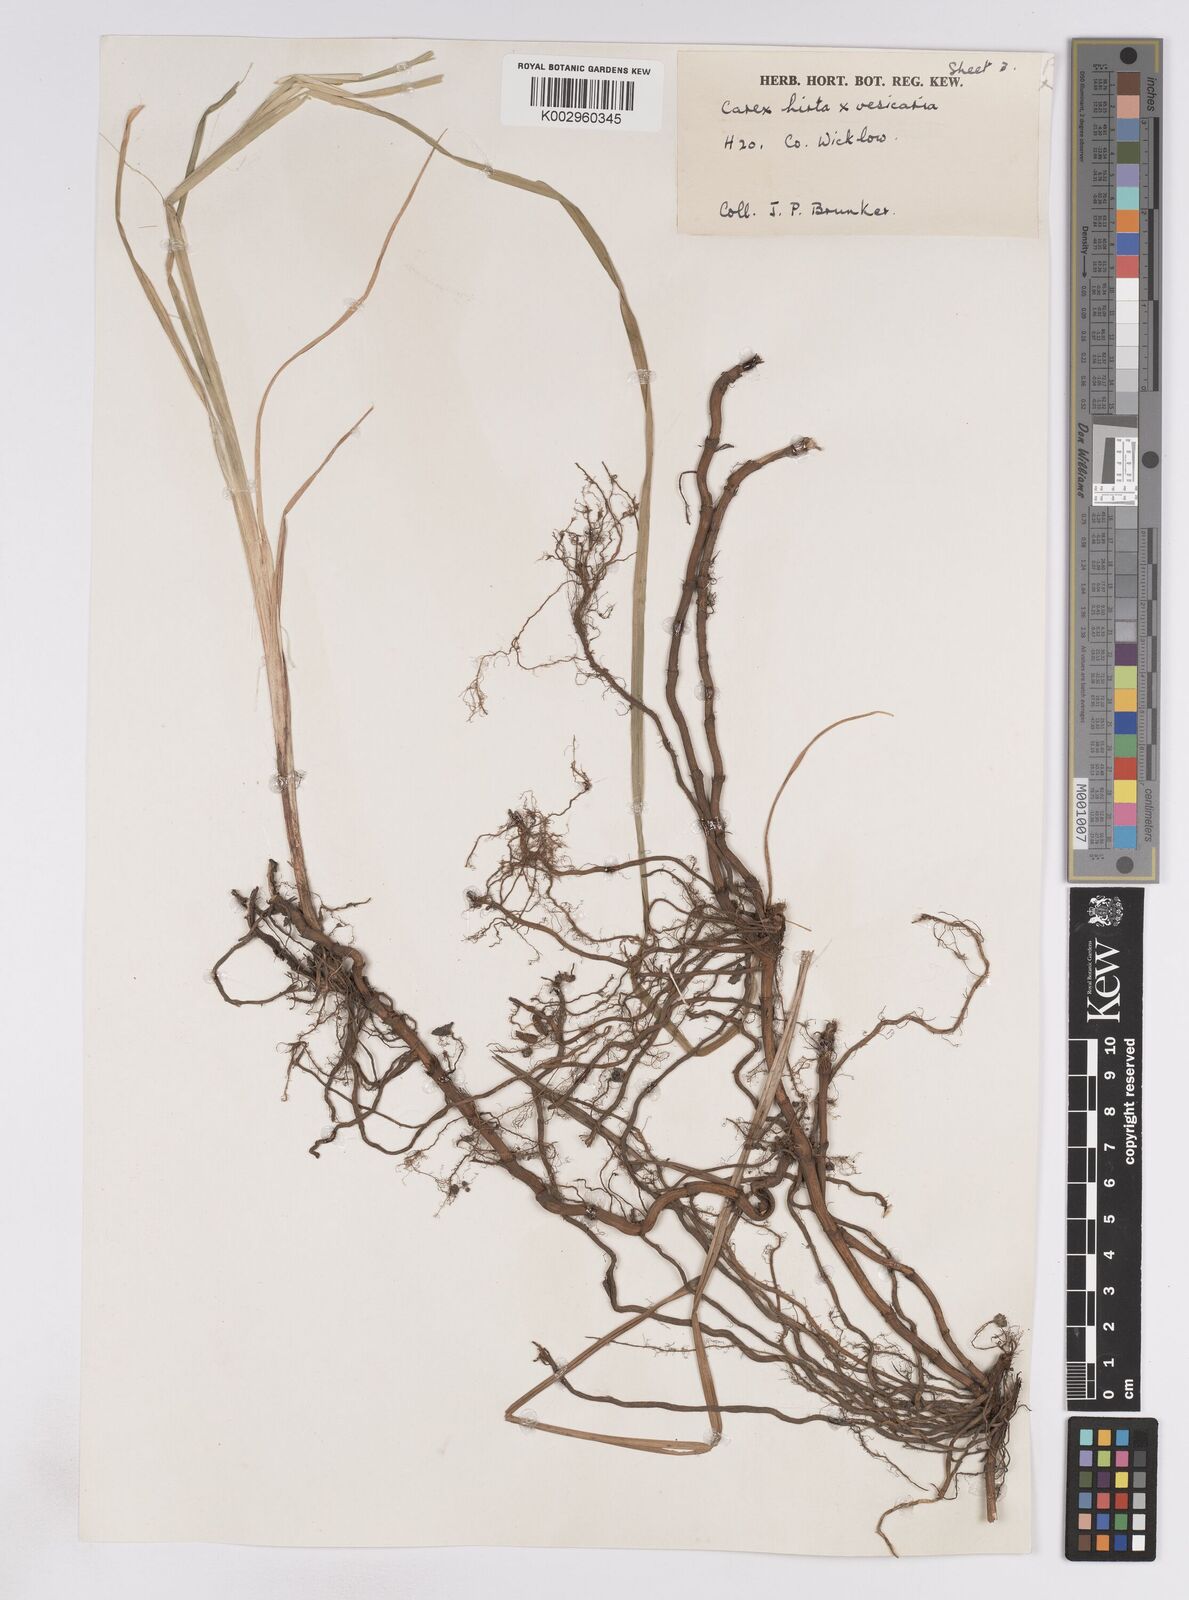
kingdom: Plantae
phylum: Tracheophyta
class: Liliopsida
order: Poales
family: Cyperaceae
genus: Carex
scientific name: Carex vesicaria
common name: Bladder-sedge
